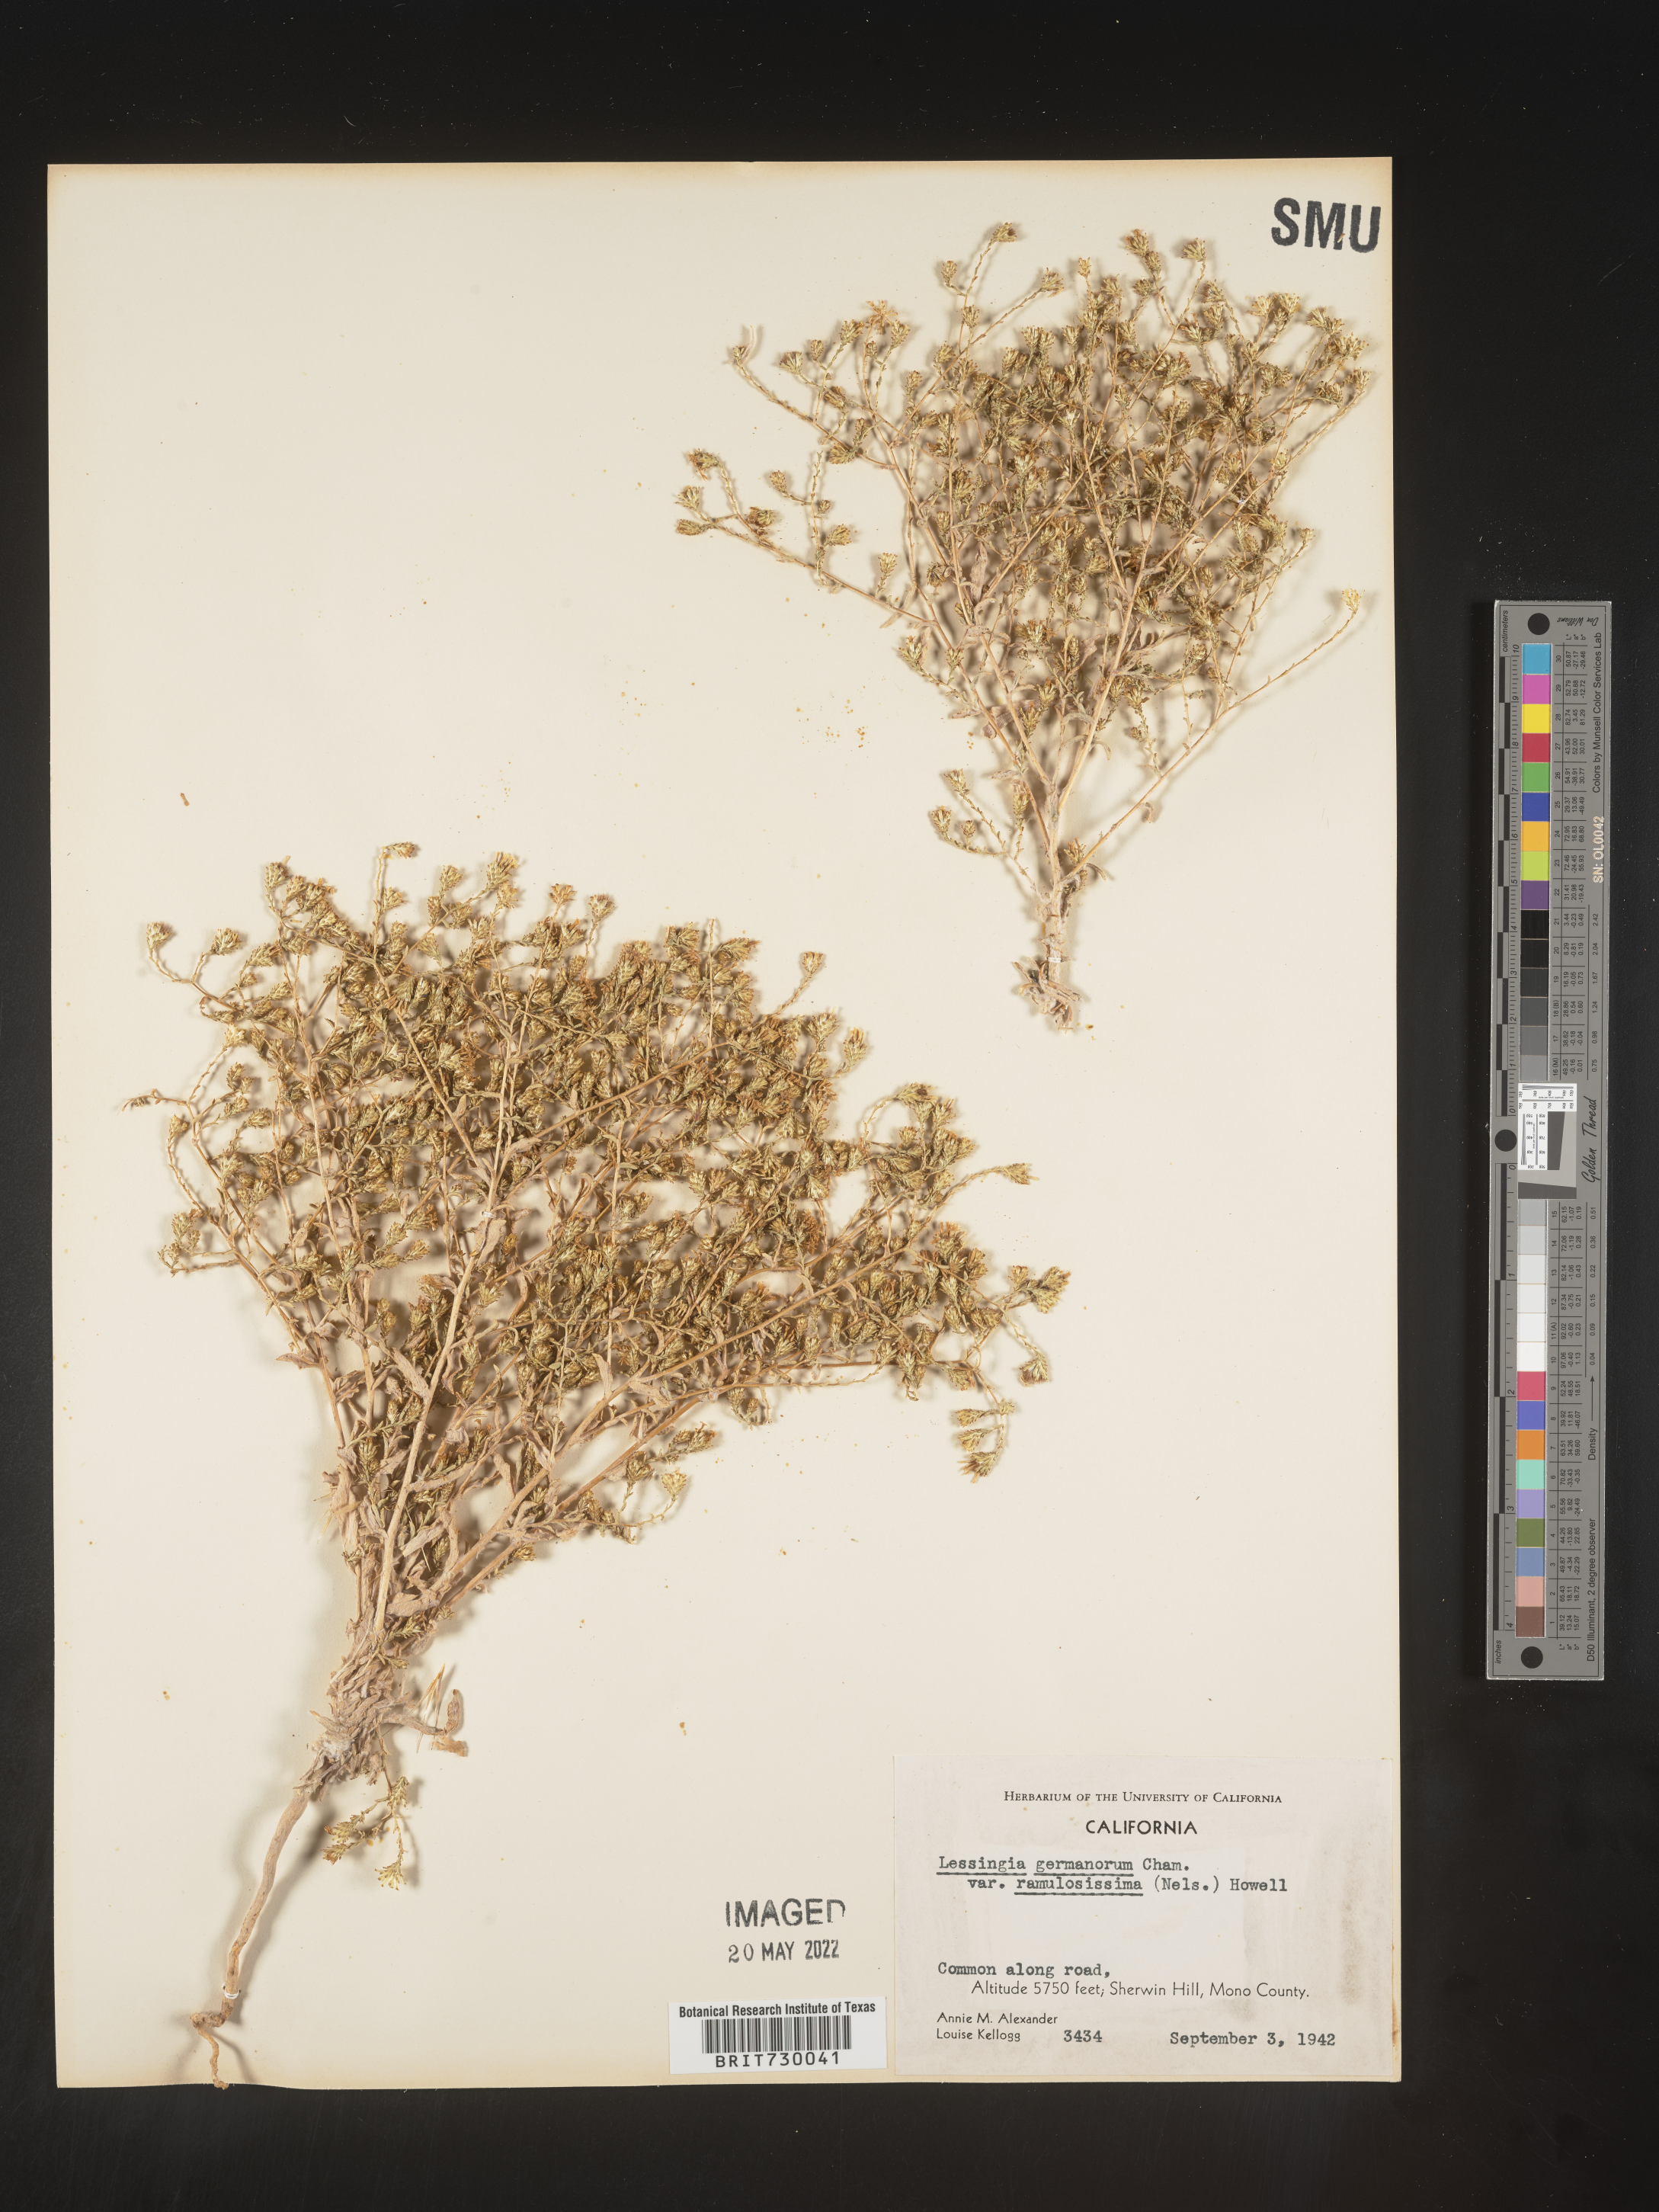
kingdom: Plantae
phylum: Tracheophyta
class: Magnoliopsida
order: Asterales
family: Asteraceae
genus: Lessingia
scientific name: Lessingia
